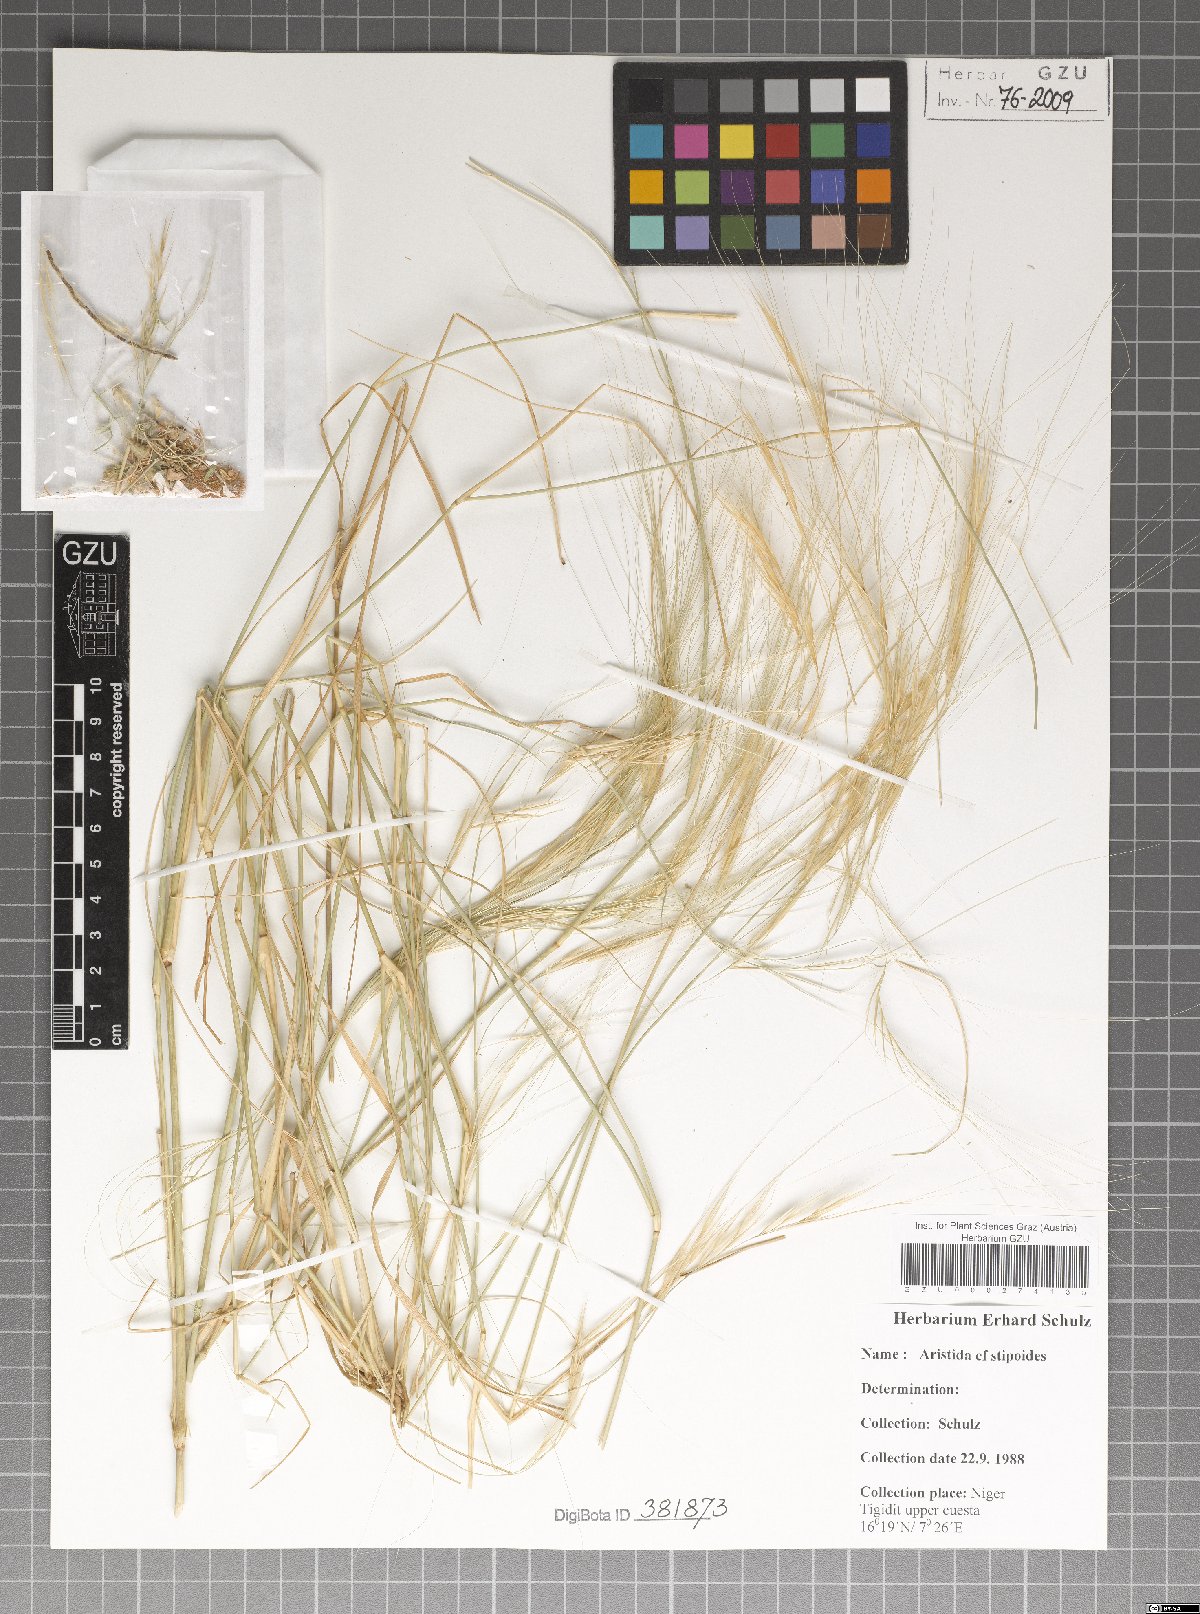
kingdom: Plantae
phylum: Tracheophyta
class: Liliopsida
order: Poales
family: Poaceae
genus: Aristida
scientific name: Aristida stipoides
